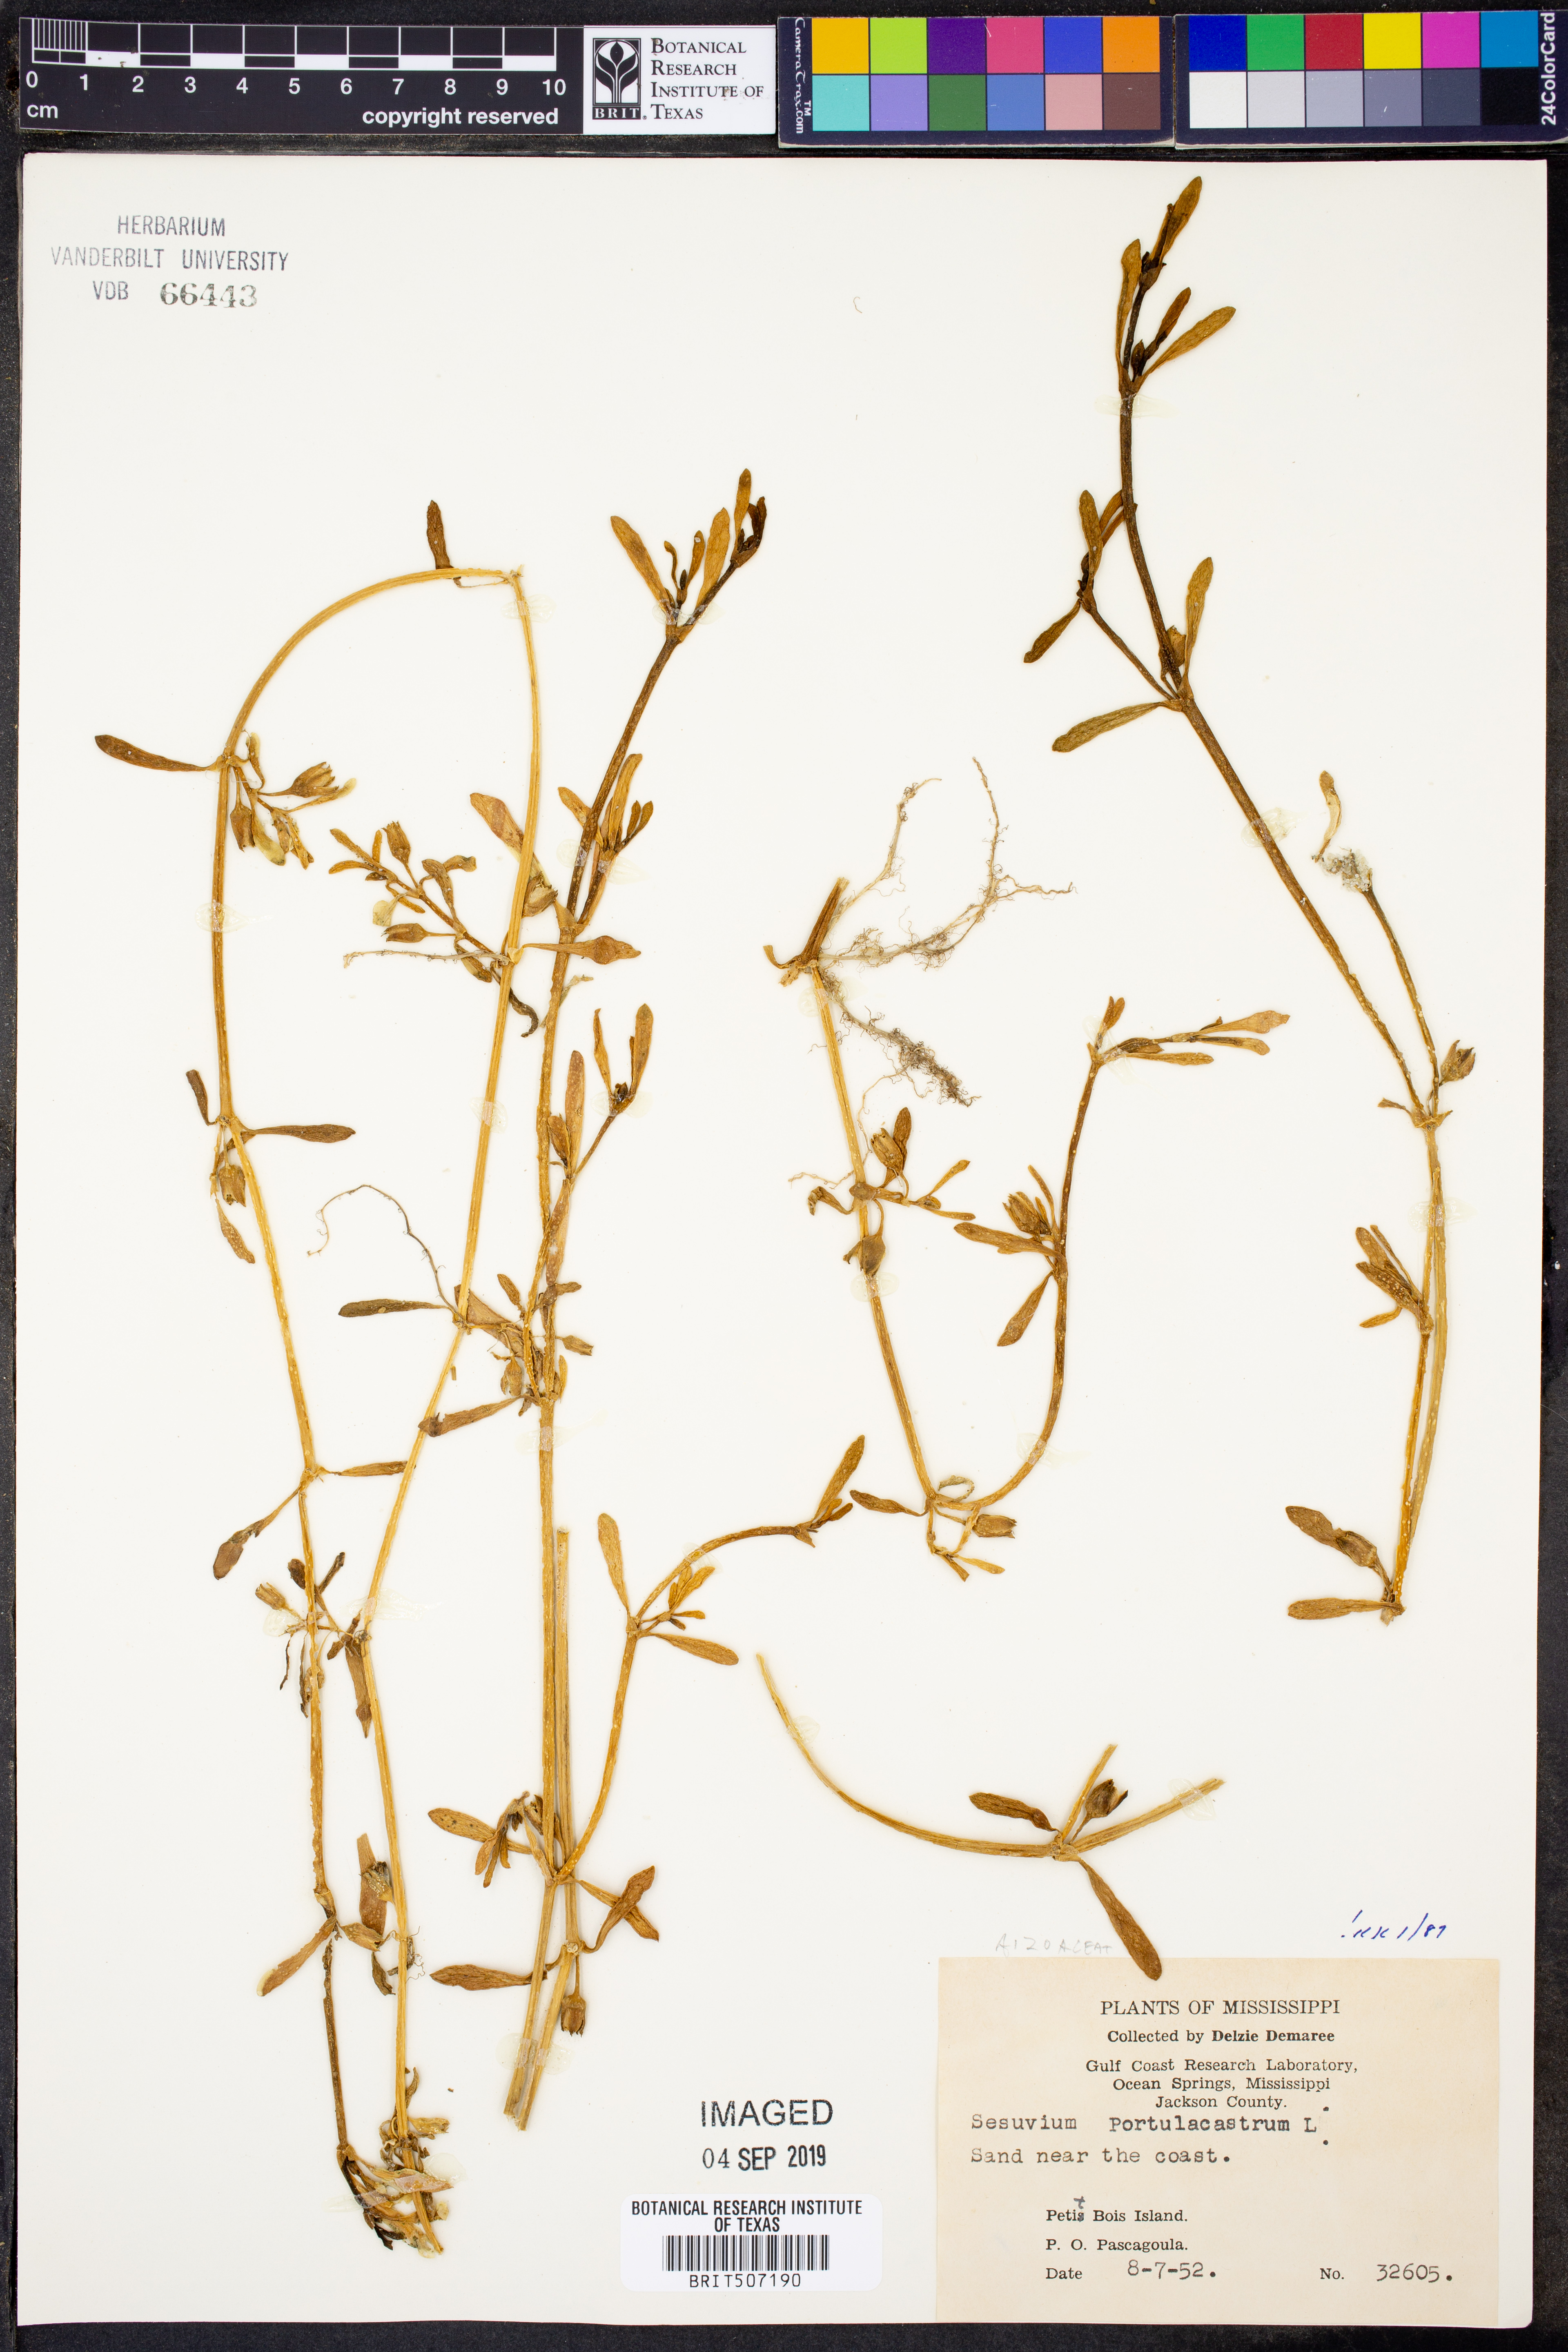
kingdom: Plantae
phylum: Tracheophyta
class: Magnoliopsida
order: Caryophyllales
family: Aizoaceae
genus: Sesuvium
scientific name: Sesuvium portulacastrum
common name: Sea-purslane
